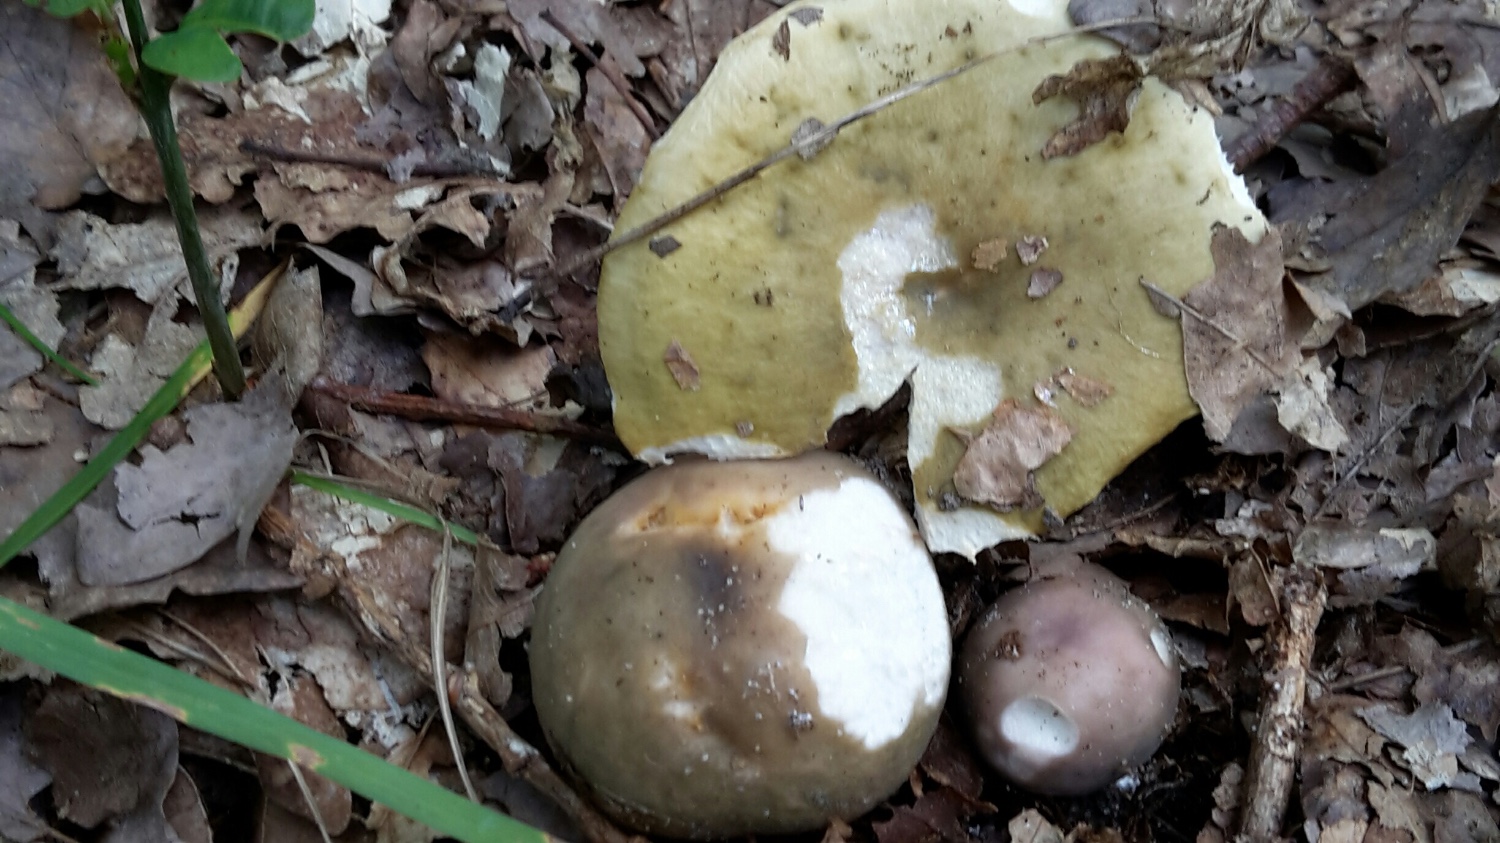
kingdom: Fungi
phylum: Basidiomycota
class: Agaricomycetes
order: Russulales
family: Russulaceae
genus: Russula
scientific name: Russula cyanoxantha
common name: broget skørhat
